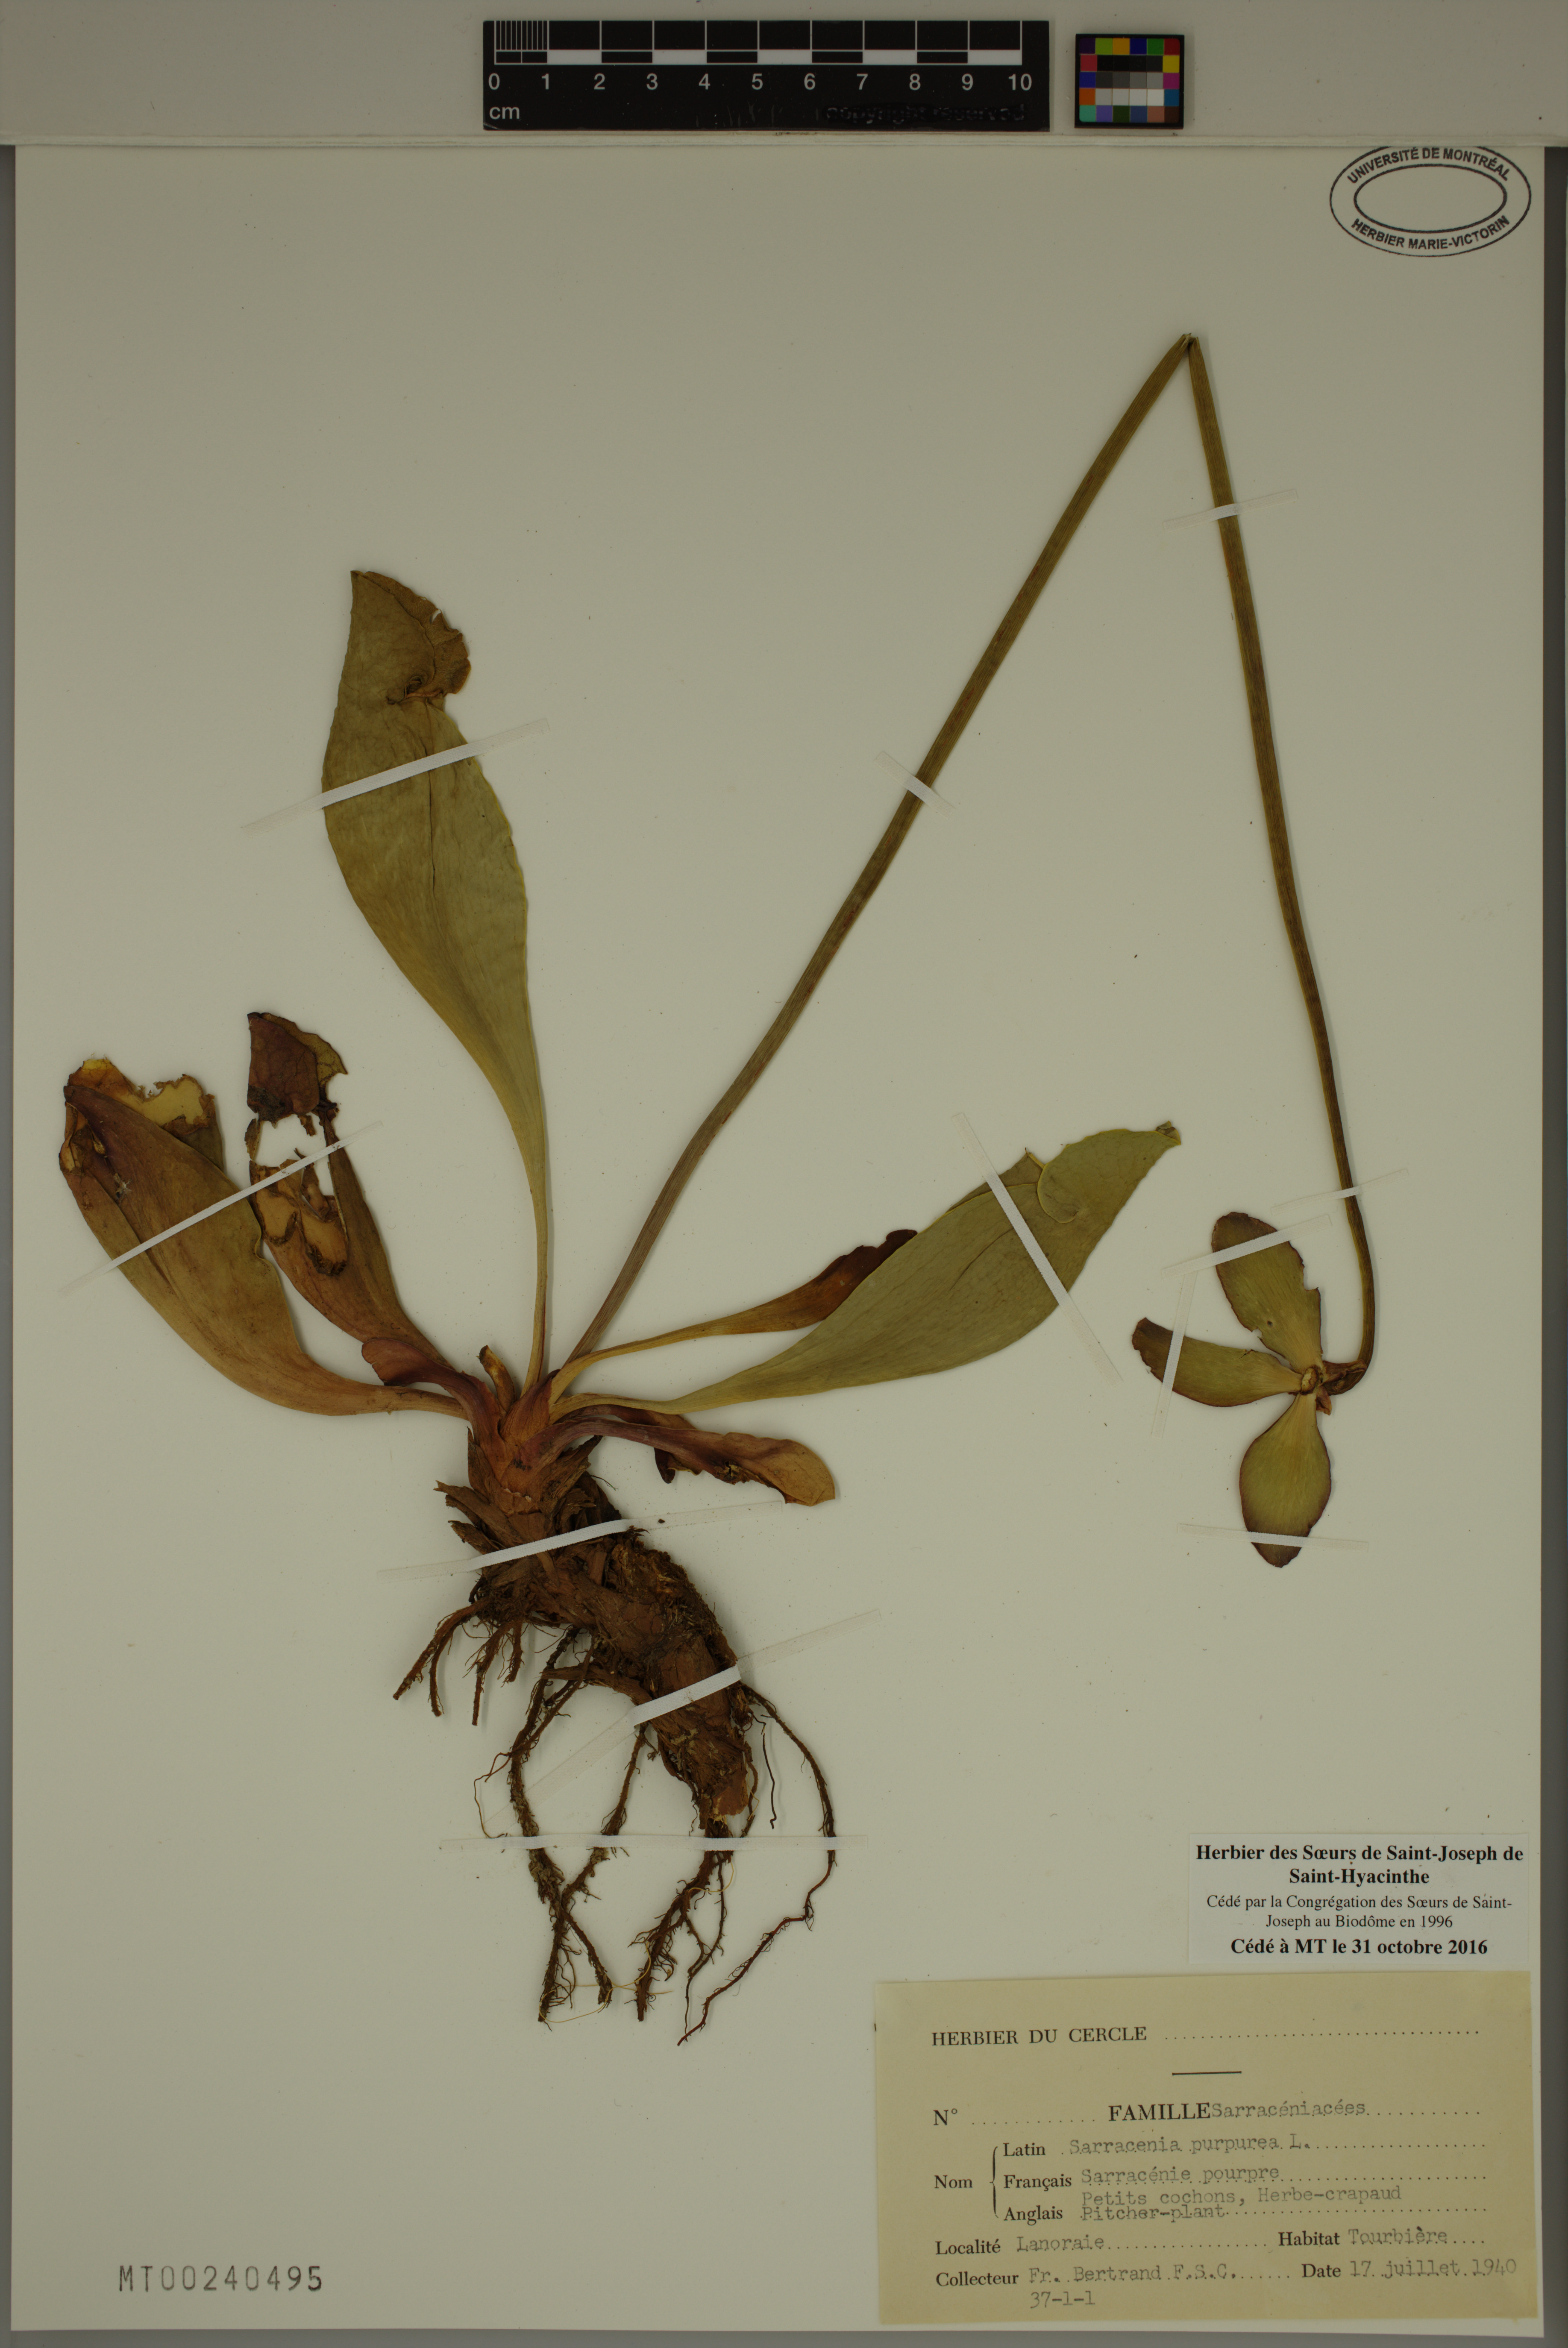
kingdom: Plantae
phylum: Tracheophyta
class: Magnoliopsida
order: Ericales
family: Sarraceniaceae
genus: Sarracenia
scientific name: Sarracenia purpurea
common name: Pitcherplant
